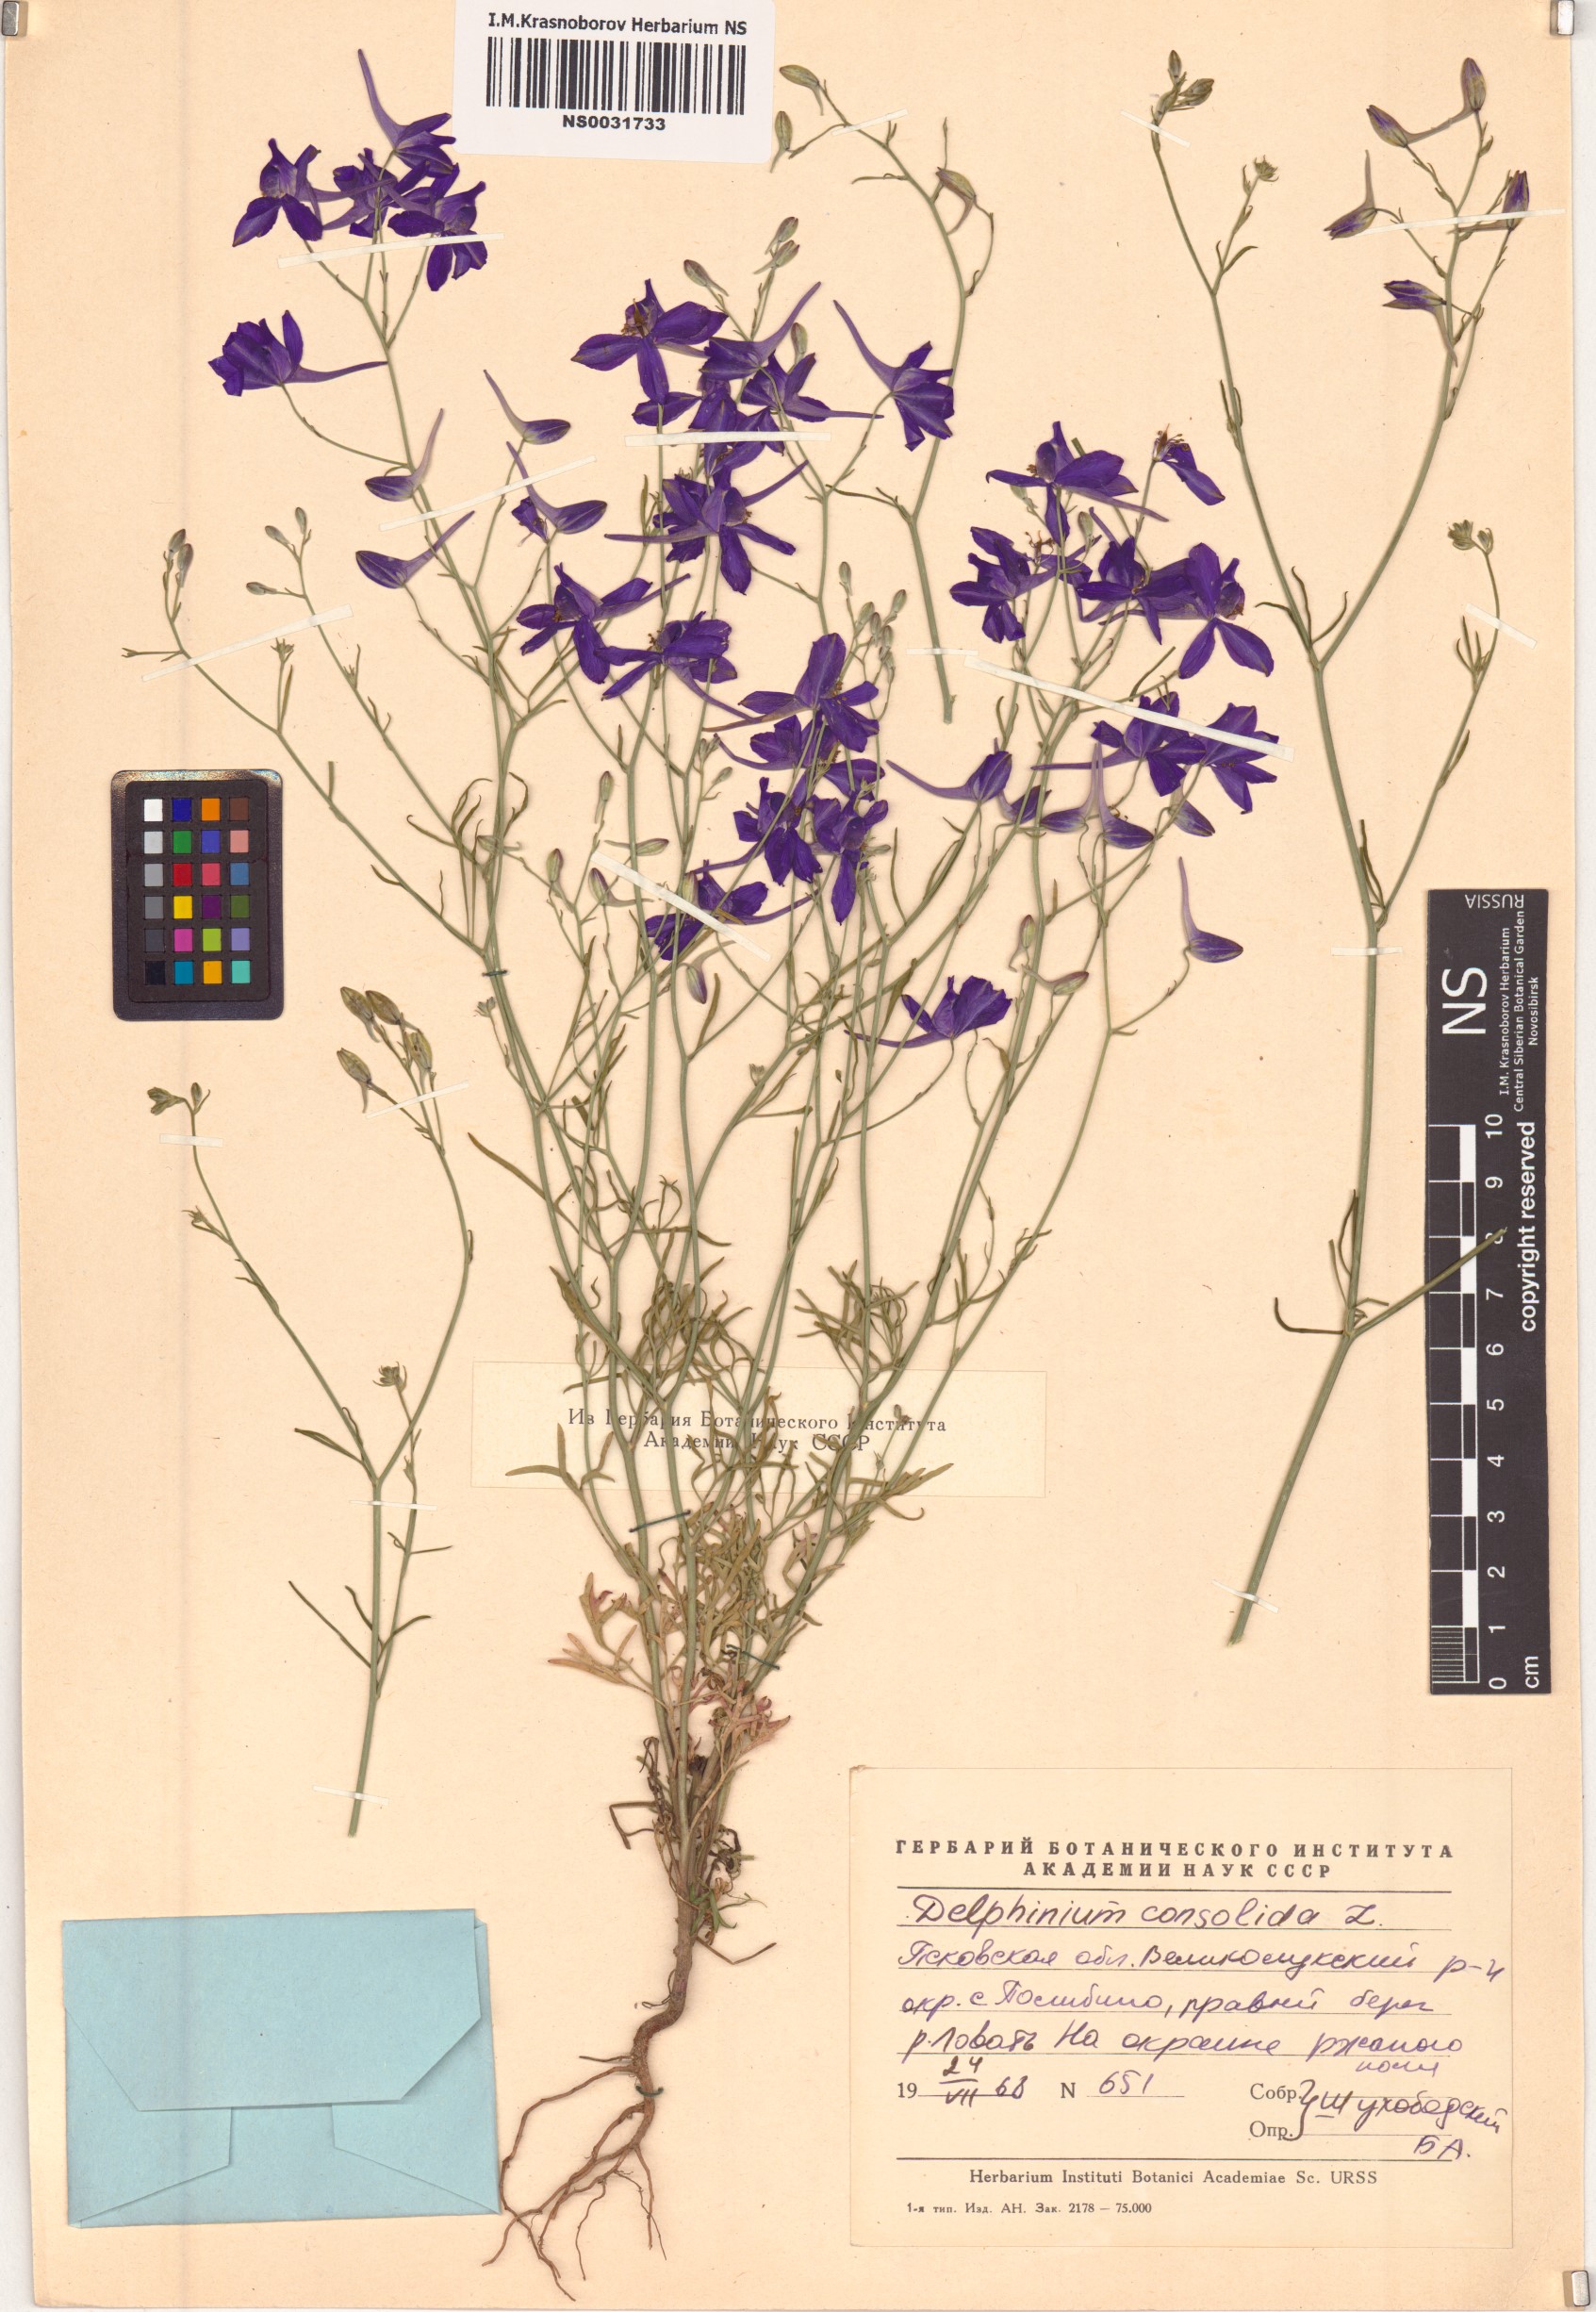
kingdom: Plantae
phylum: Tracheophyta
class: Magnoliopsida
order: Ranunculales
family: Ranunculaceae
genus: Delphinium
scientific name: Delphinium consolida
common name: Branching larkspur
